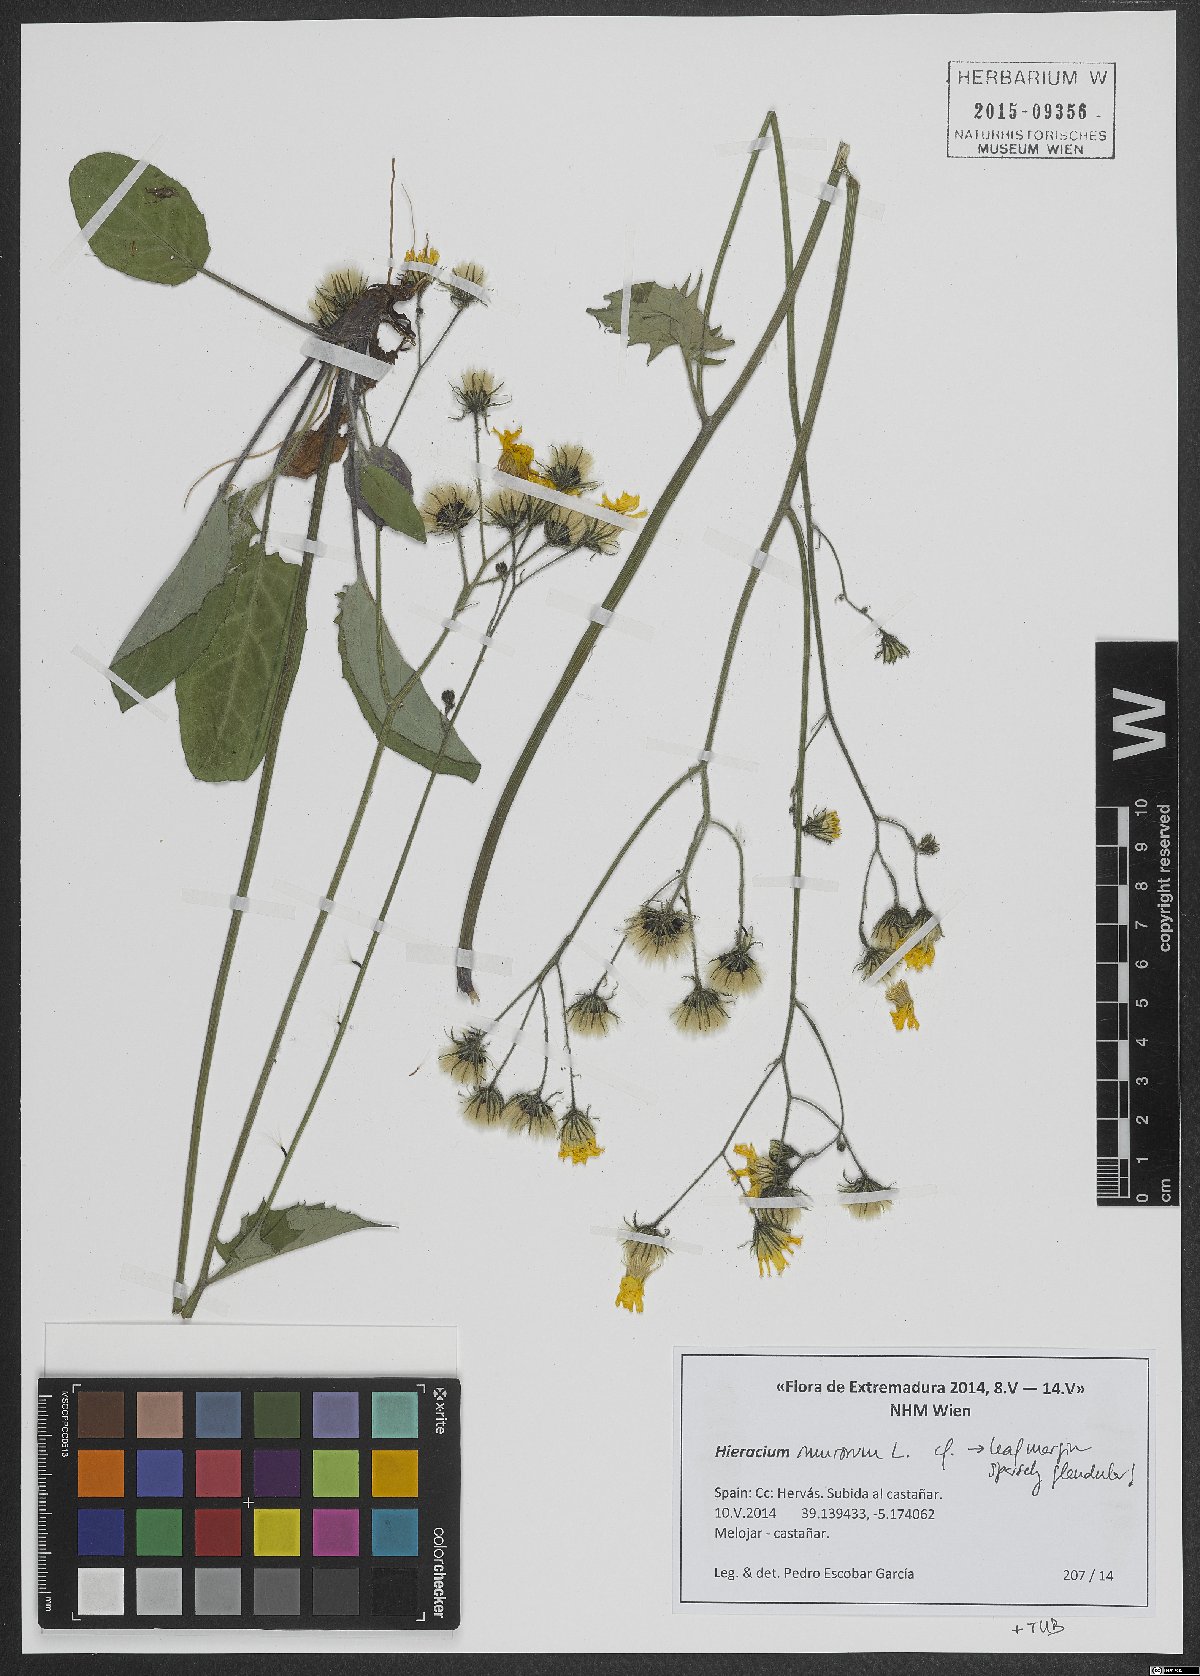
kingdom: Plantae
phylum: Tracheophyta
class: Magnoliopsida
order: Asterales
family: Asteraceae
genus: Hieracium
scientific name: Hieracium murorum
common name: Wall hawkweed
